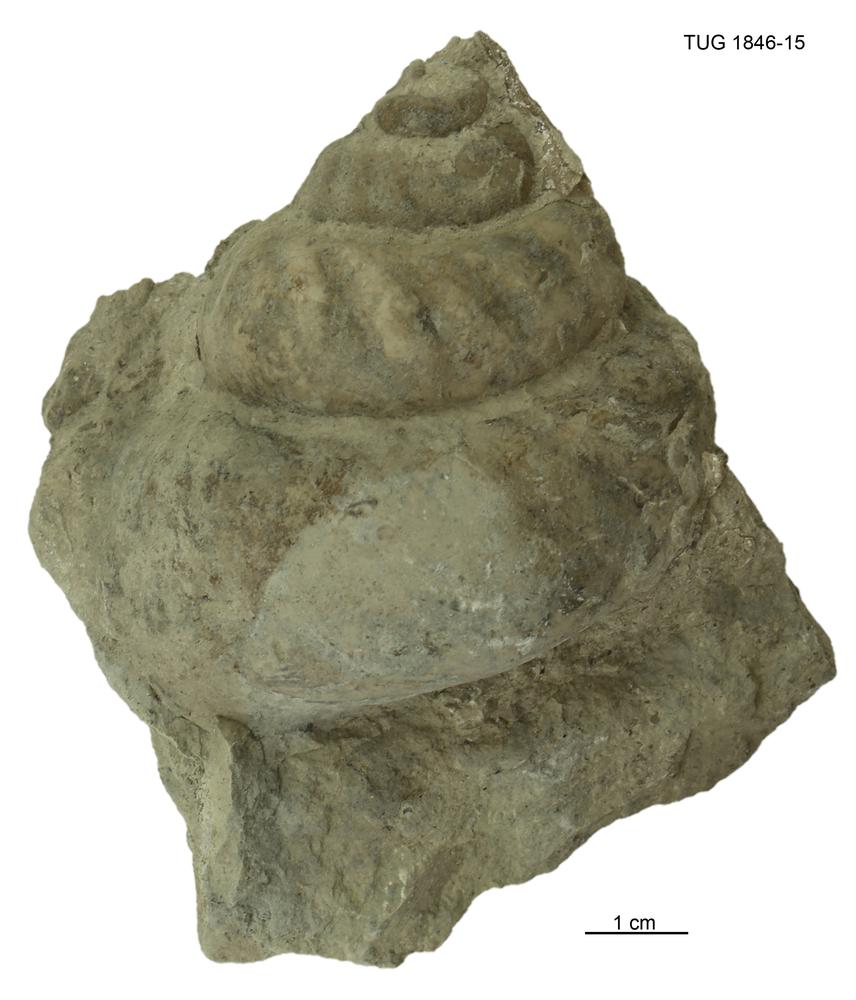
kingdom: Animalia
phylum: Mollusca
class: Gastropoda
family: Euomphalidae
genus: Kiaeromphalus
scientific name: Kiaeromphalus Euomphalus undiferus
